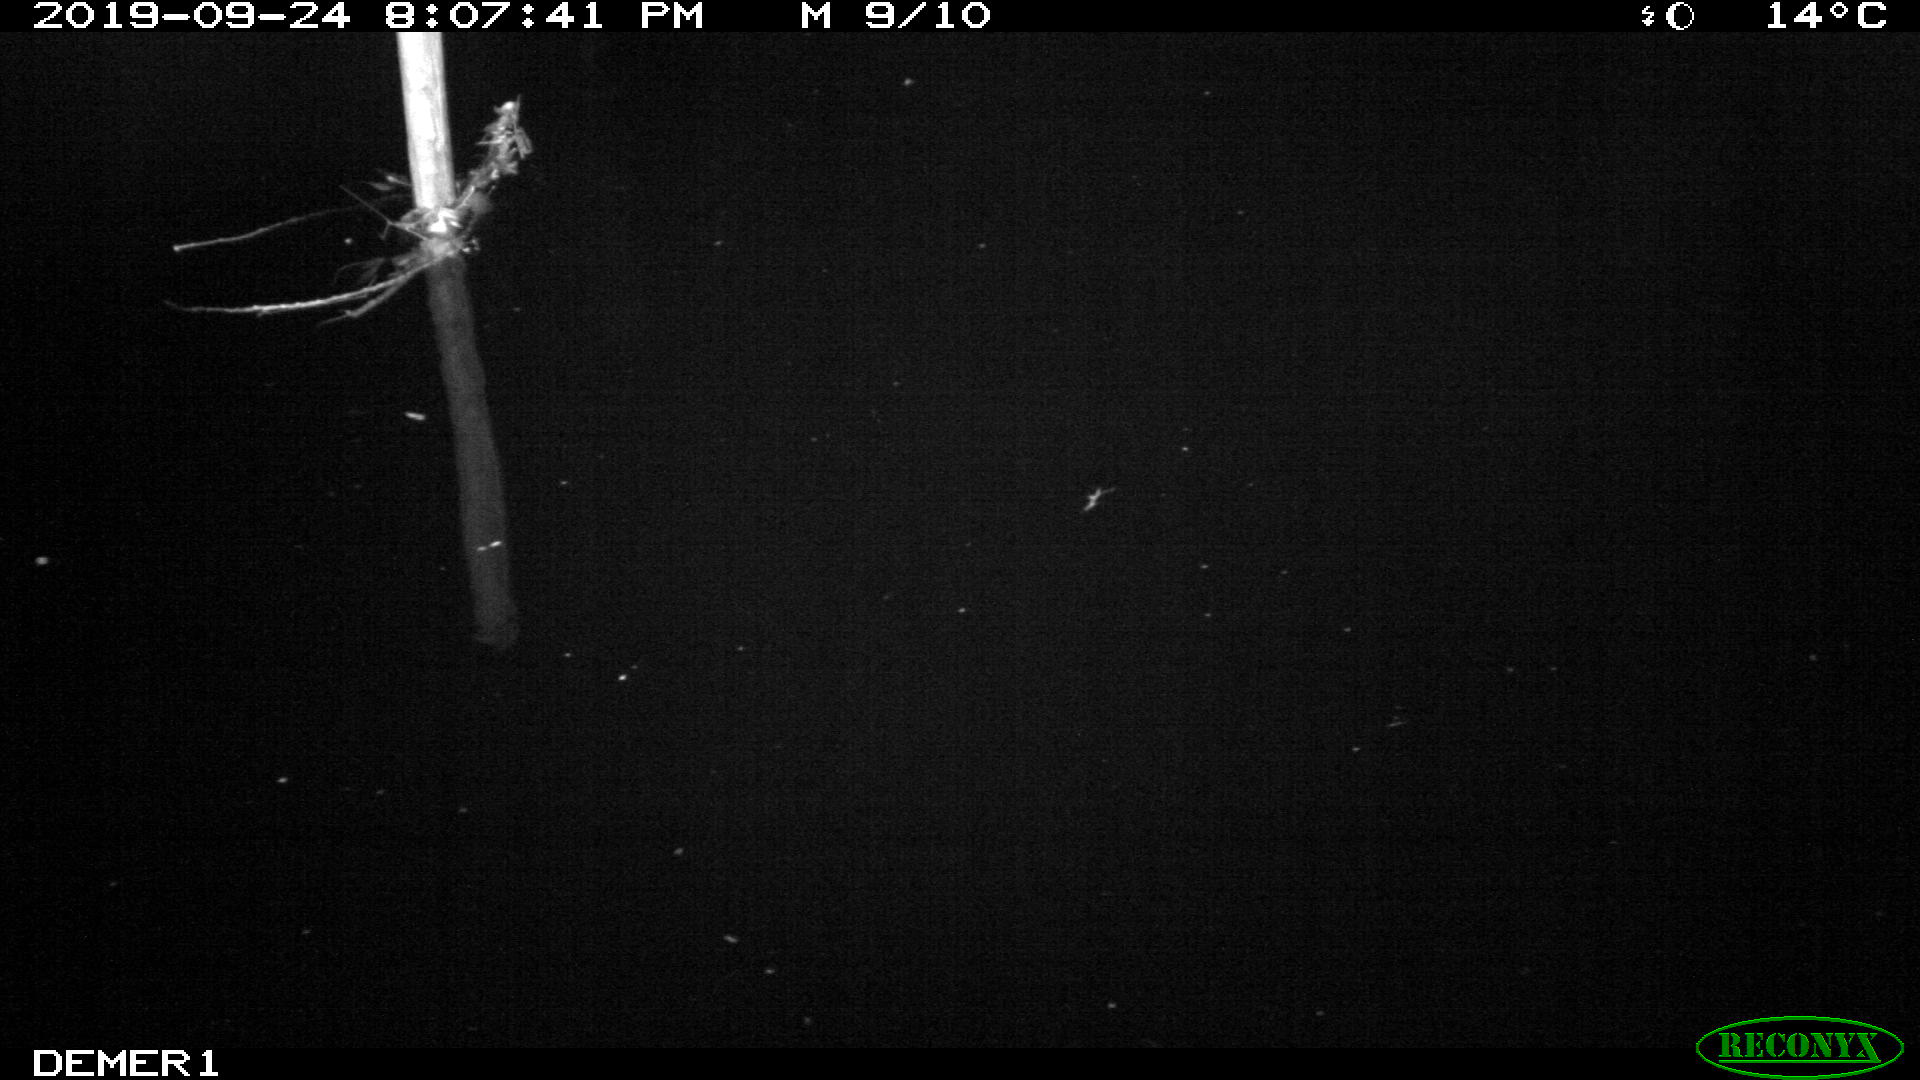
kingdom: Animalia
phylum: Chordata
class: Aves
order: Anseriformes
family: Anatidae
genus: Anas
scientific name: Anas platyrhynchos
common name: Mallard
